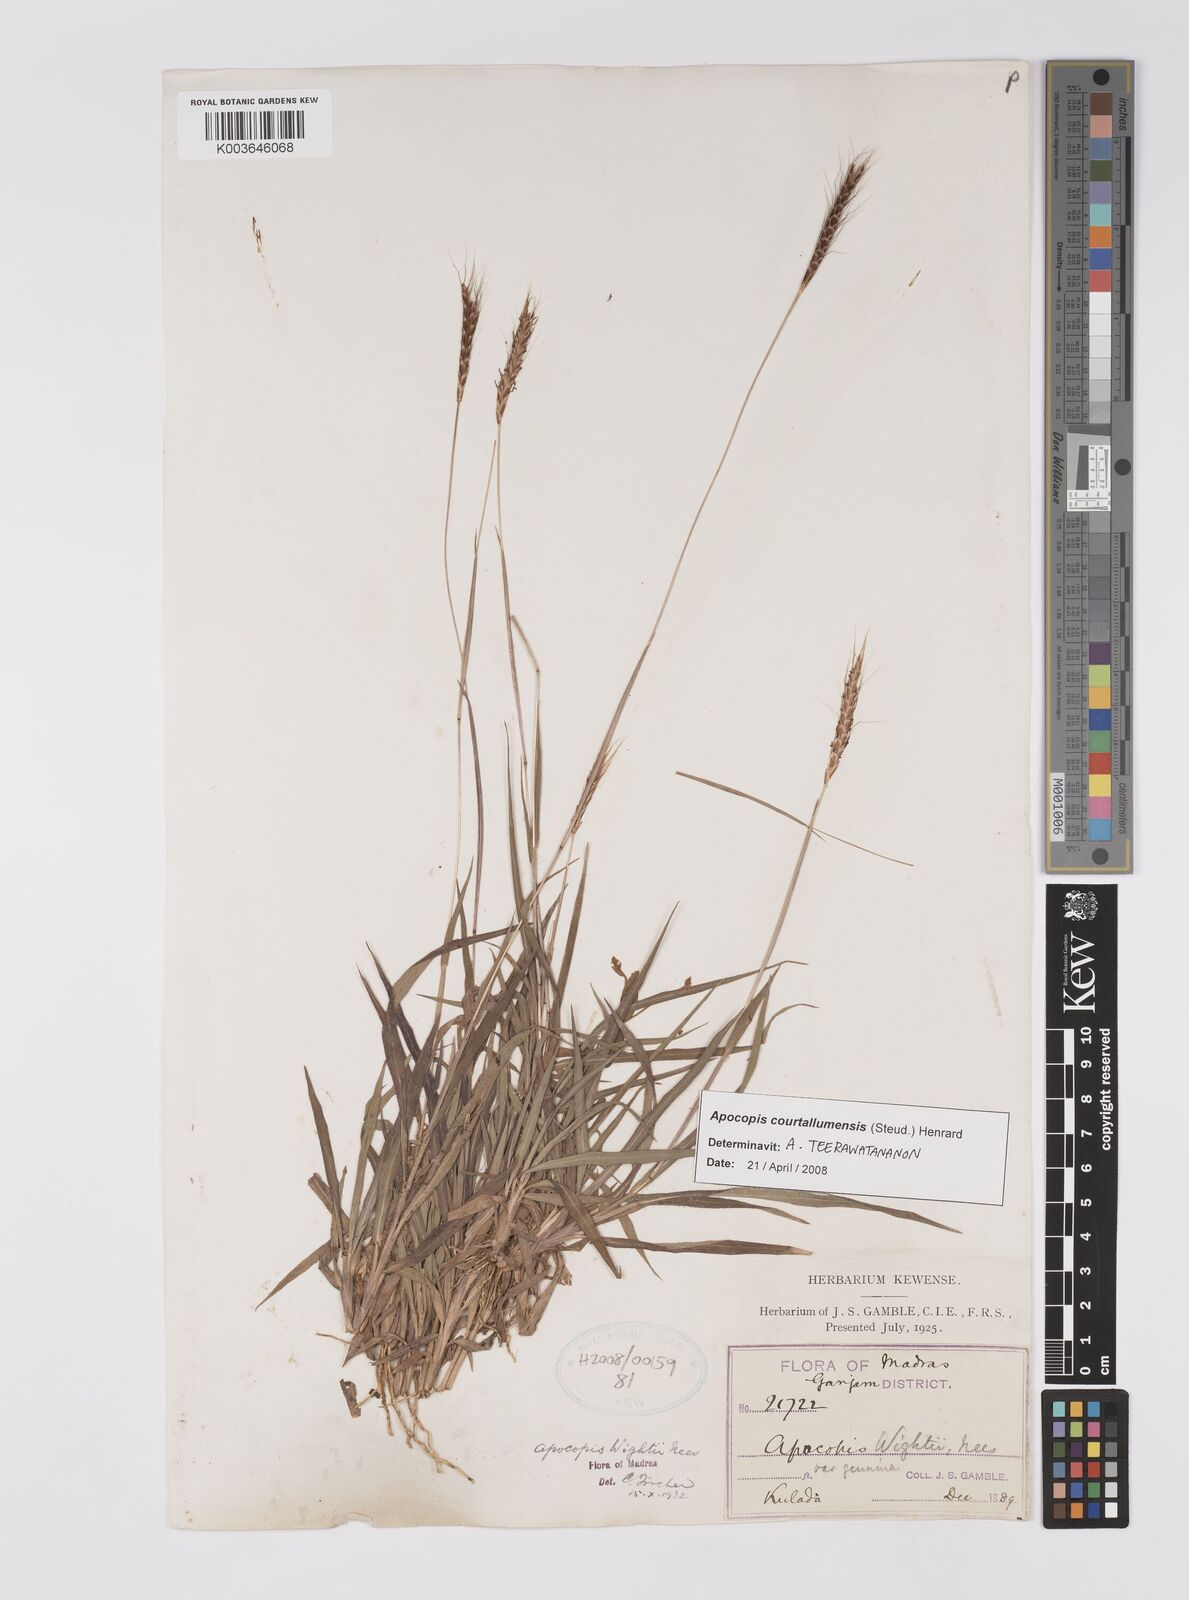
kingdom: Plantae
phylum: Tracheophyta
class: Liliopsida
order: Poales
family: Poaceae
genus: Apocopis
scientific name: Apocopis courtallumensis
